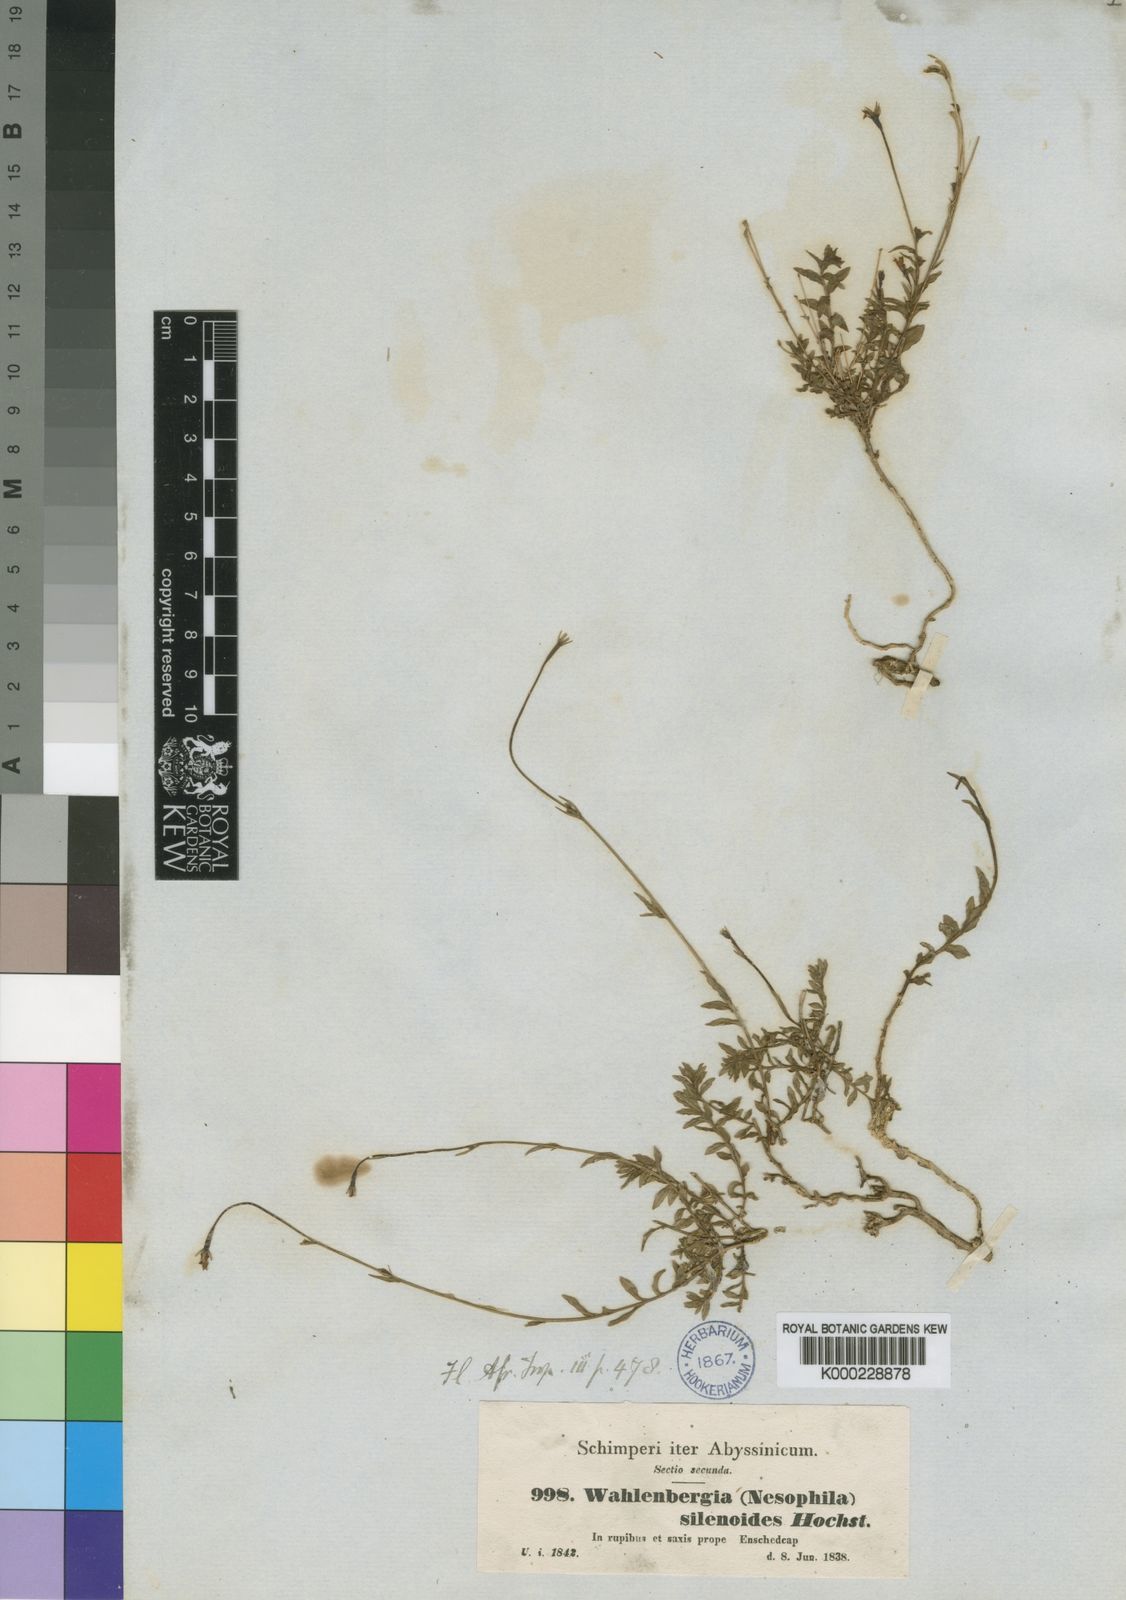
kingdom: Plantae
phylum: Tracheophyta
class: Magnoliopsida
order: Asterales
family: Campanulaceae
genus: Wahlenbergia
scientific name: Wahlenbergia silenoides
